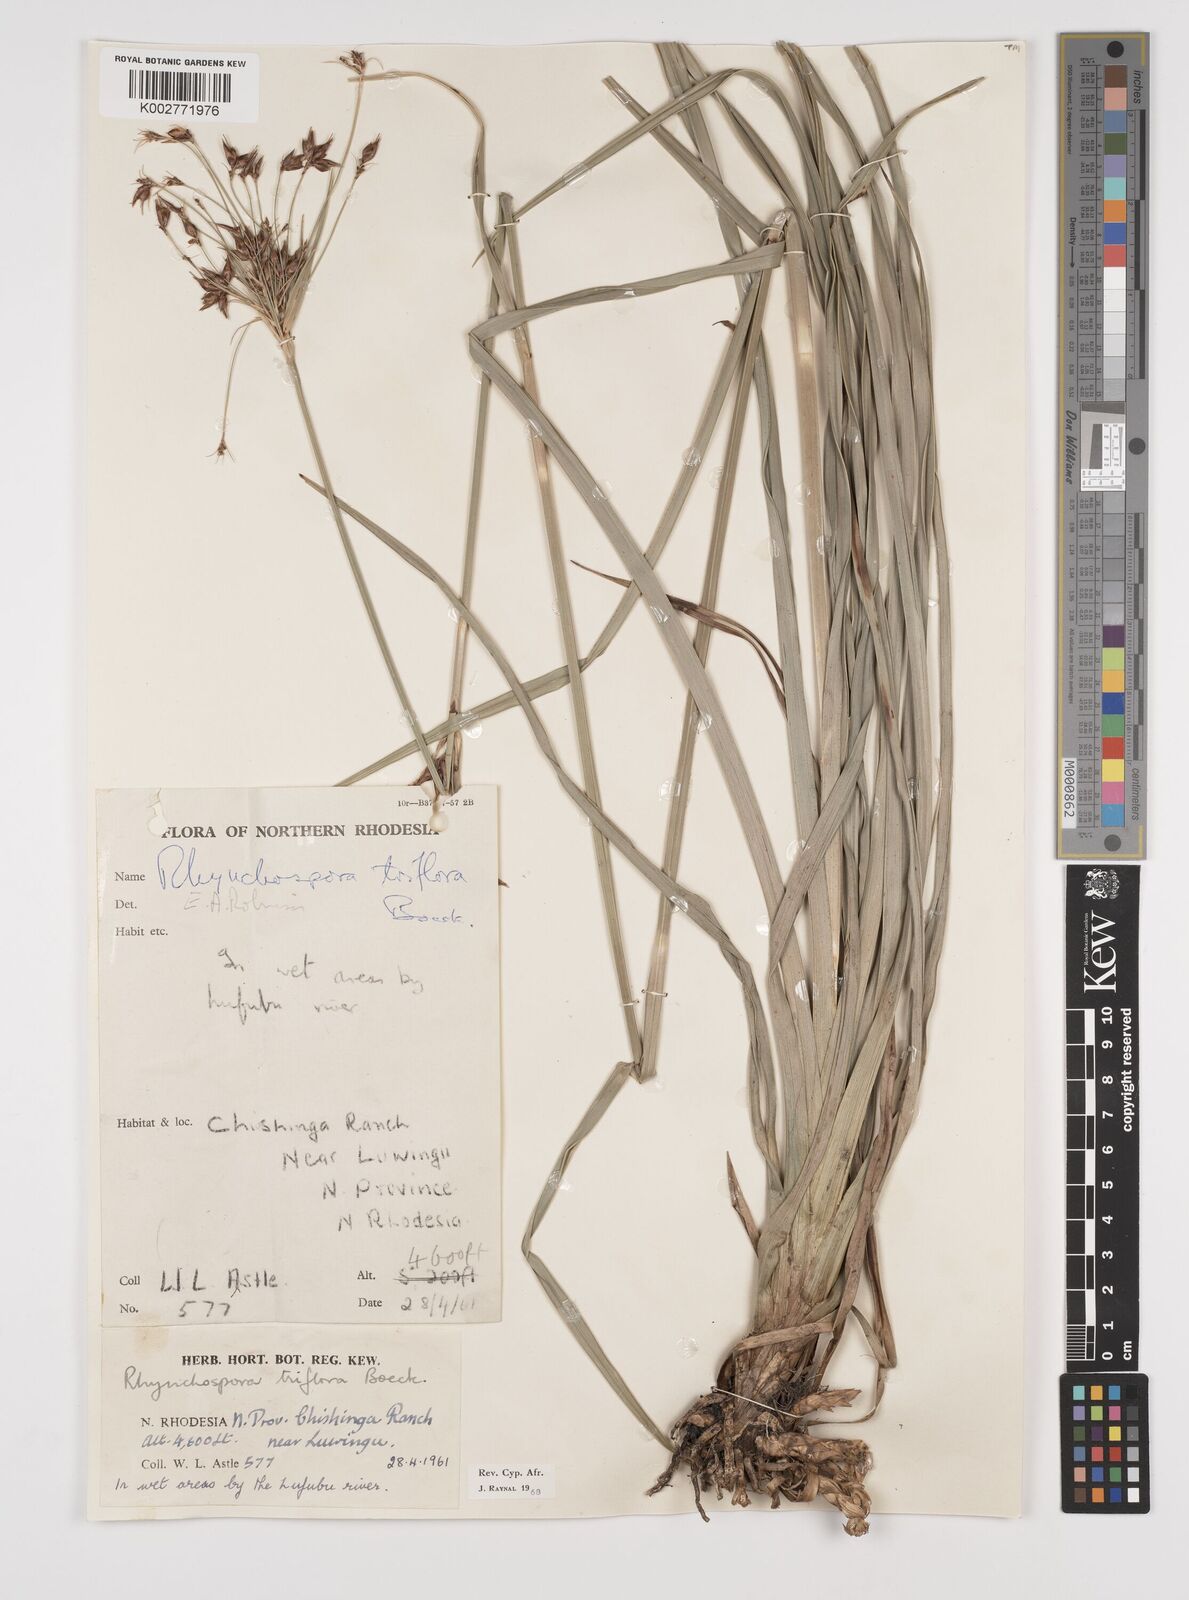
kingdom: Plantae
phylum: Tracheophyta
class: Liliopsida
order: Poales
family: Cyperaceae
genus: Rhynchospora
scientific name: Rhynchospora triflora
